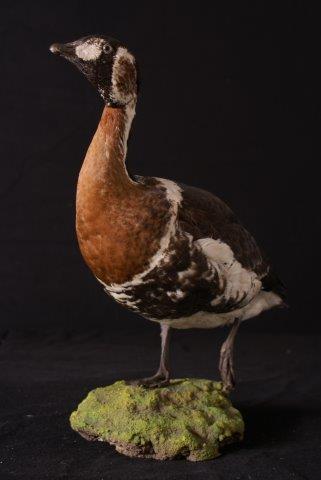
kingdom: Animalia
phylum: Chordata
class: Aves
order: Anseriformes
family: Anatidae
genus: Branta
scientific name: Branta ruficollis
